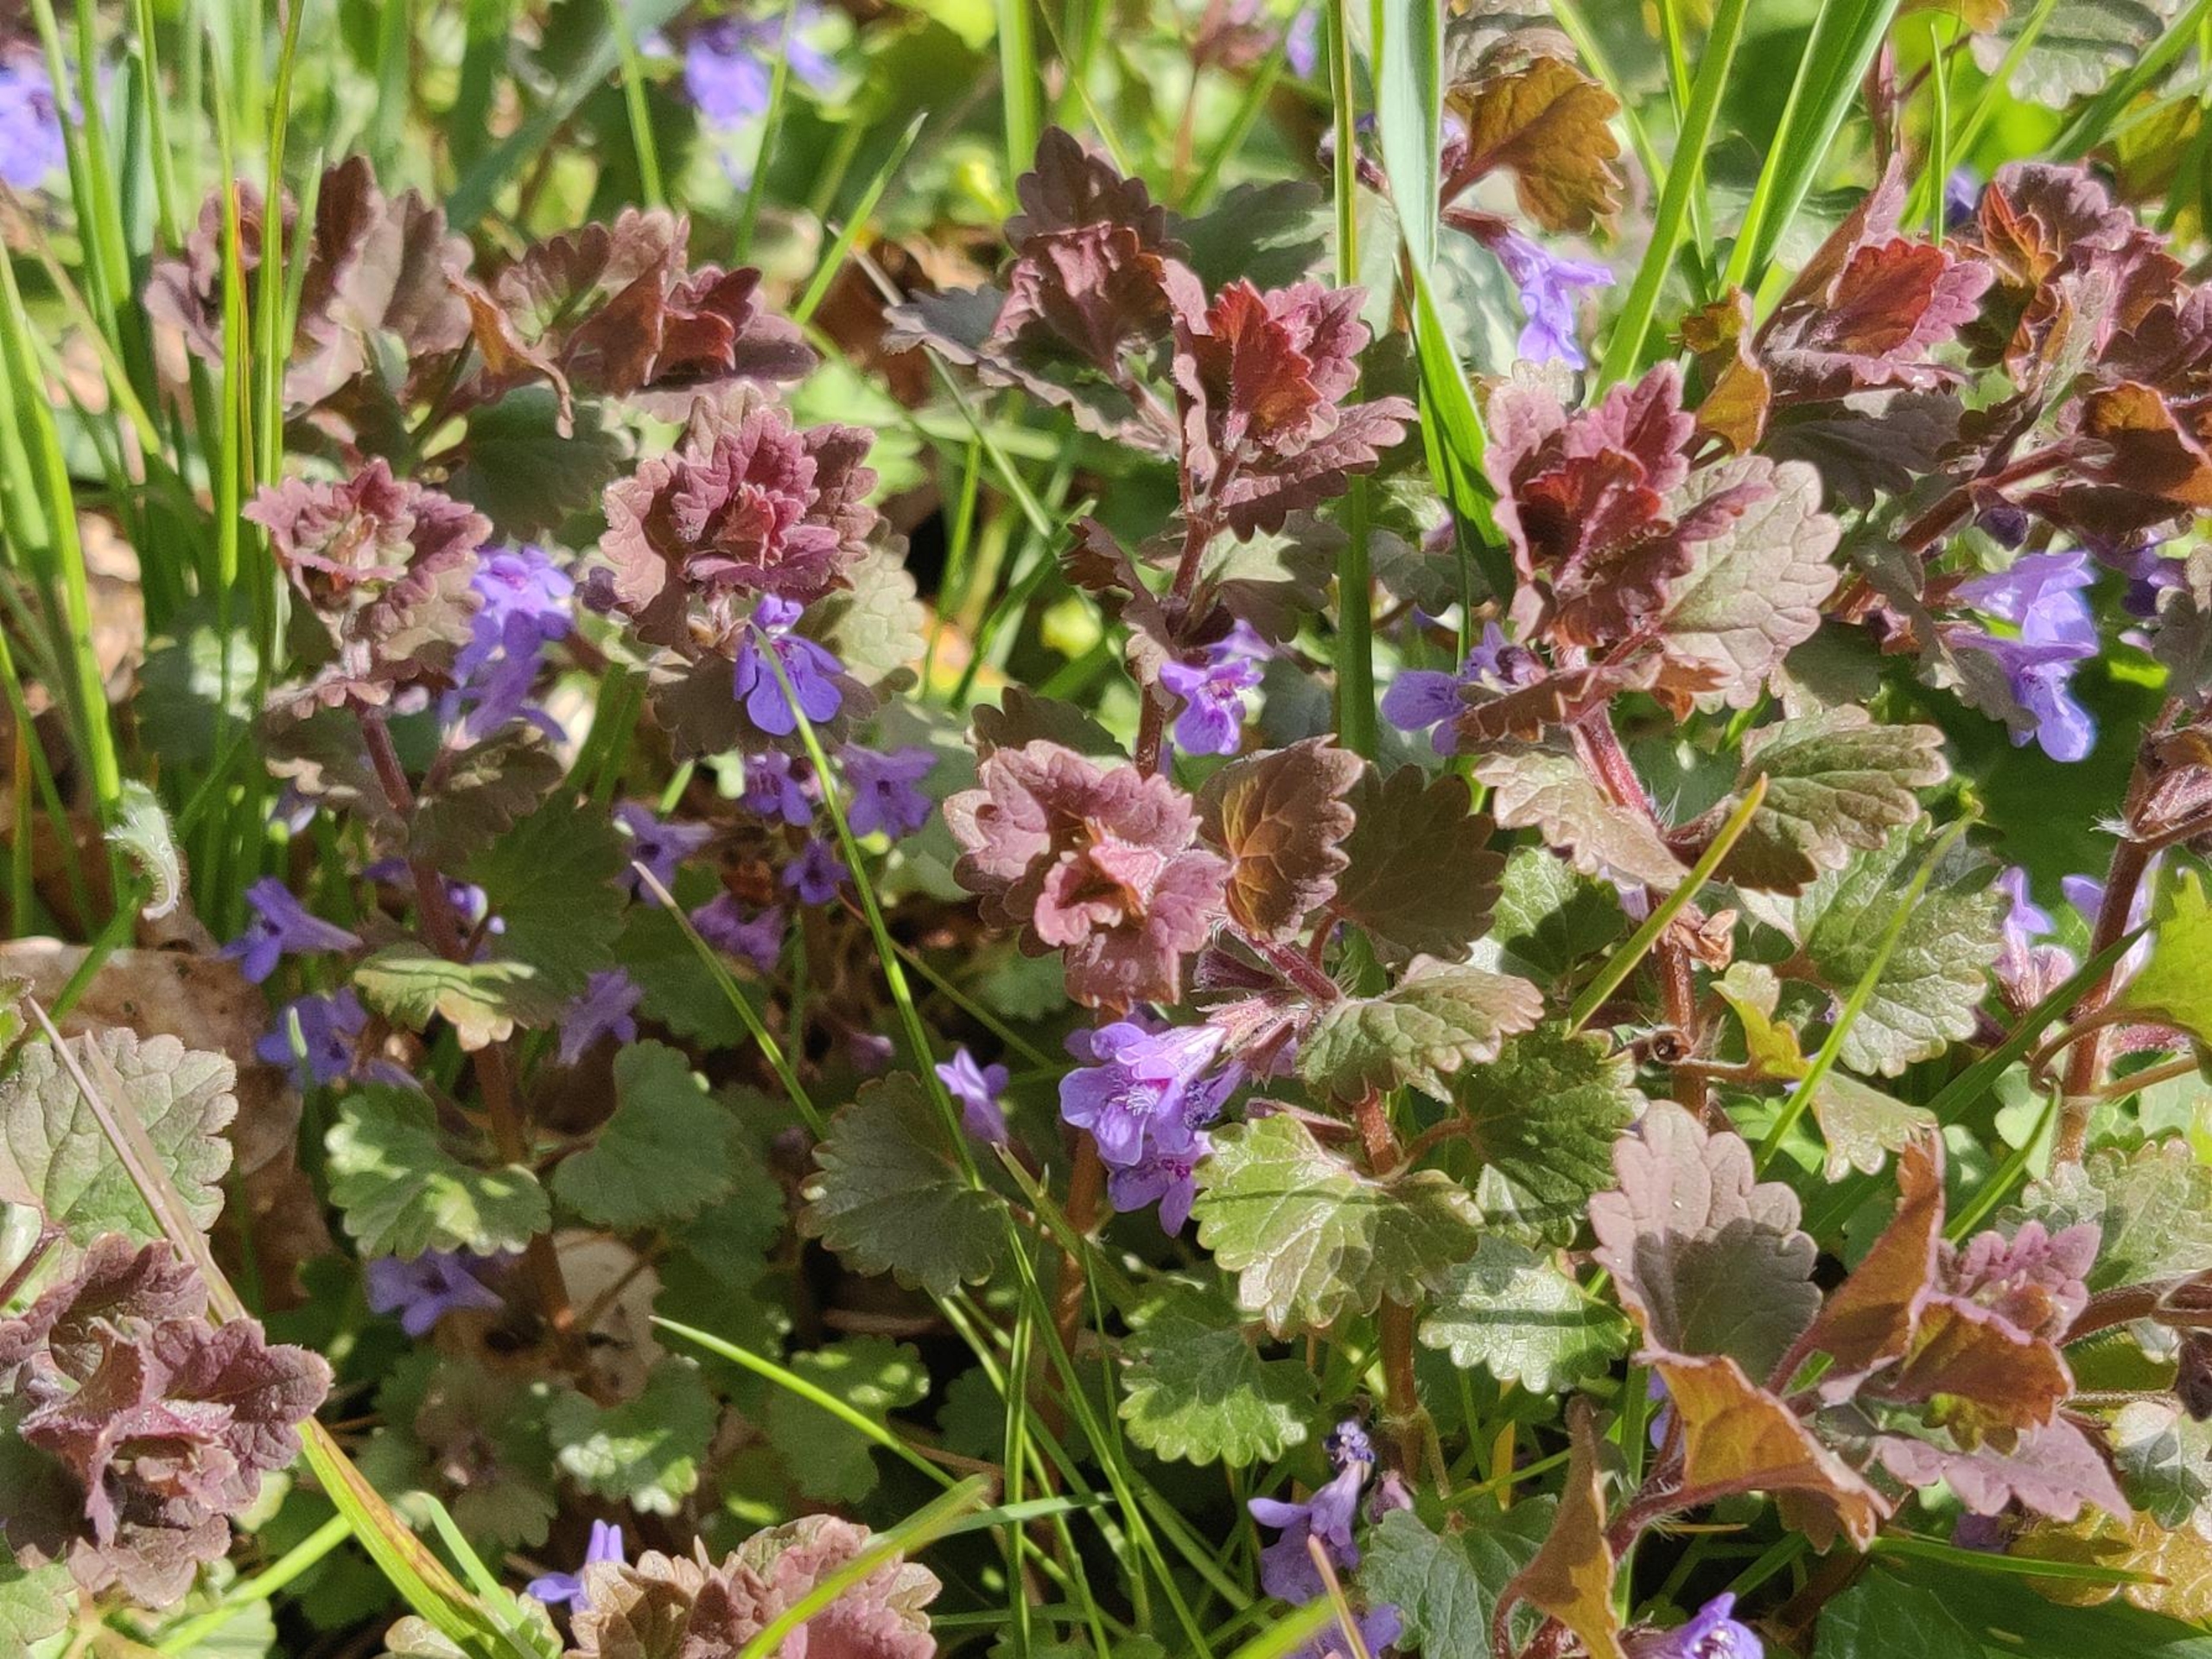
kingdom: Plantae
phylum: Tracheophyta
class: Magnoliopsida
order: Lamiales
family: Lamiaceae
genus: Glechoma
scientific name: Glechoma hederacea
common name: Korsknap
